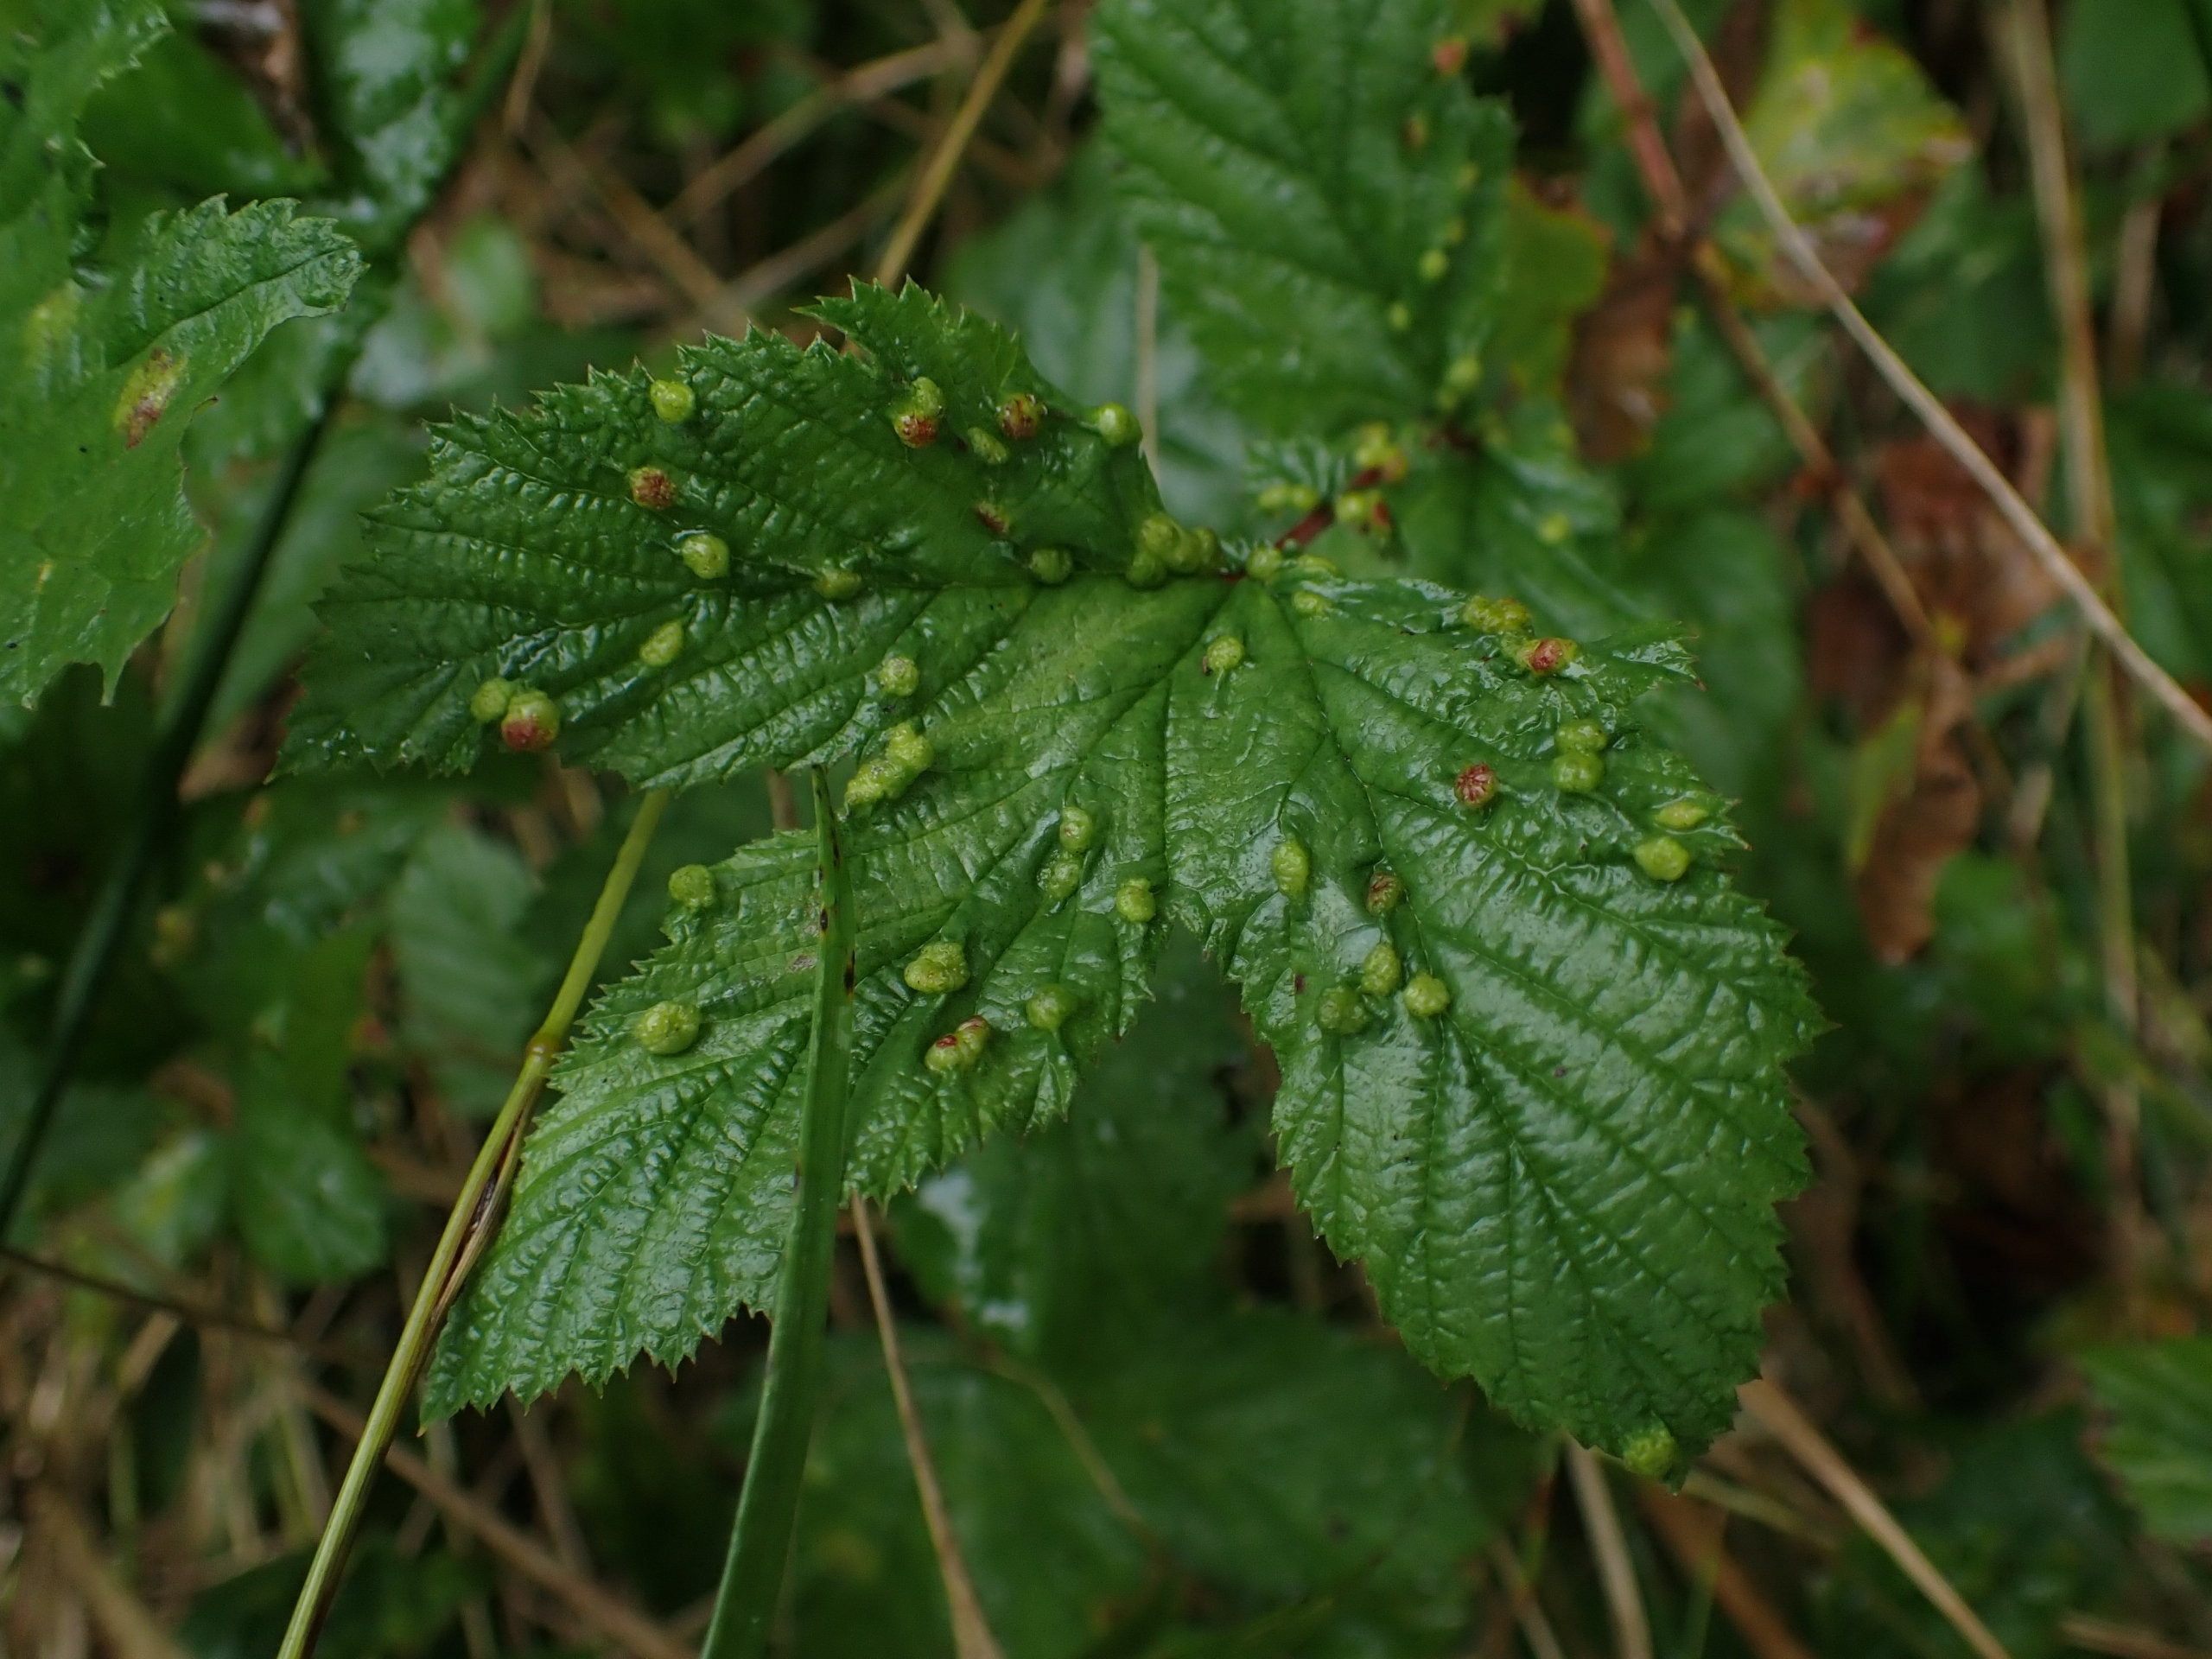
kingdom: Animalia
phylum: Arthropoda
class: Insecta
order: Diptera
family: Cecidomyiidae
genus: Dasineura
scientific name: Dasineura ulmaria
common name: Mjødurtgalmyg
